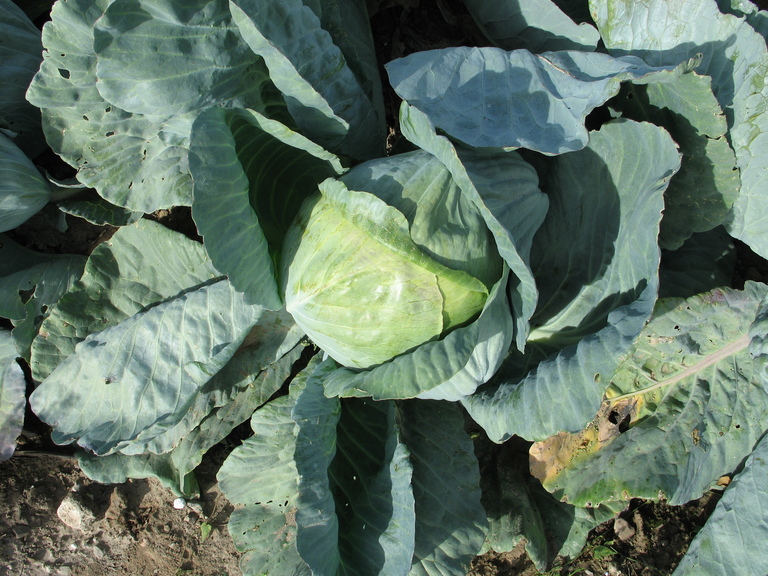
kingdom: Plantae
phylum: Tracheophyta
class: Magnoliopsida
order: Brassicales
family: Brassicaceae
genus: Brassica
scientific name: Brassica oleracea
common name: Cabbage
